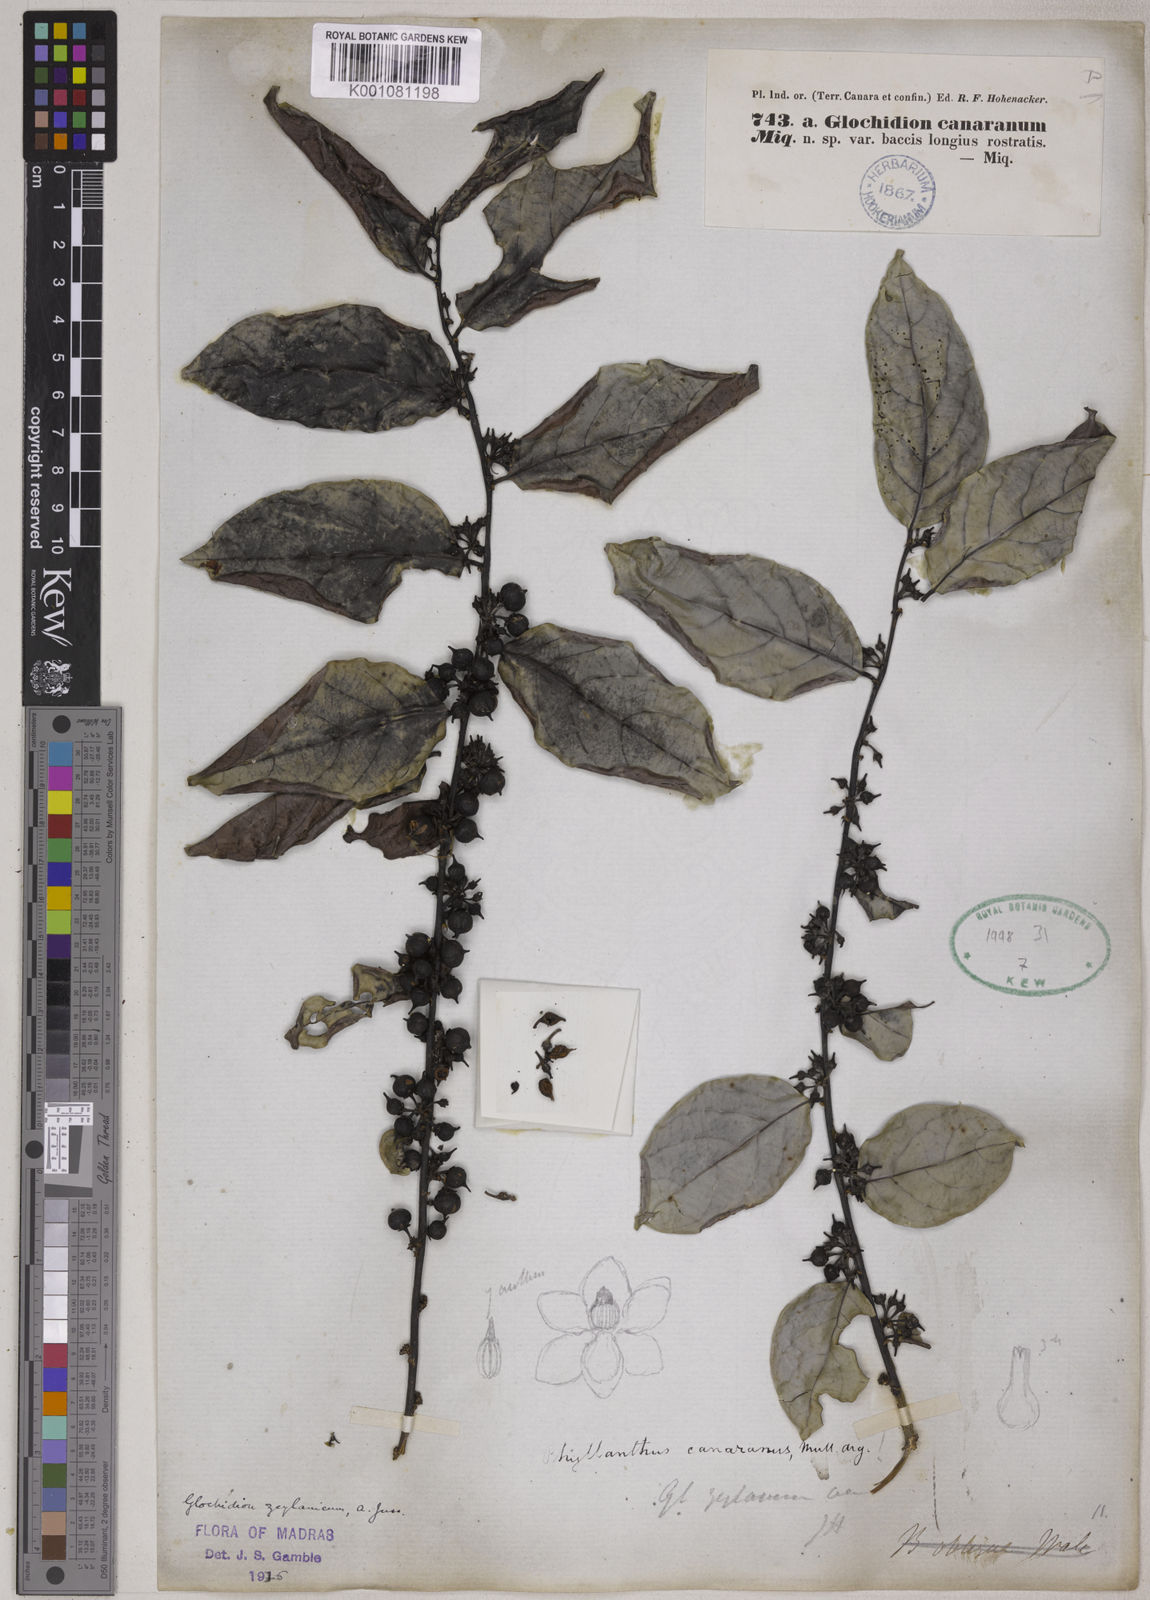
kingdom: Plantae
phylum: Tracheophyta
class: Magnoliopsida
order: Malpighiales
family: Phyllanthaceae
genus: Glochidion
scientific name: Glochidion zeylanicum
